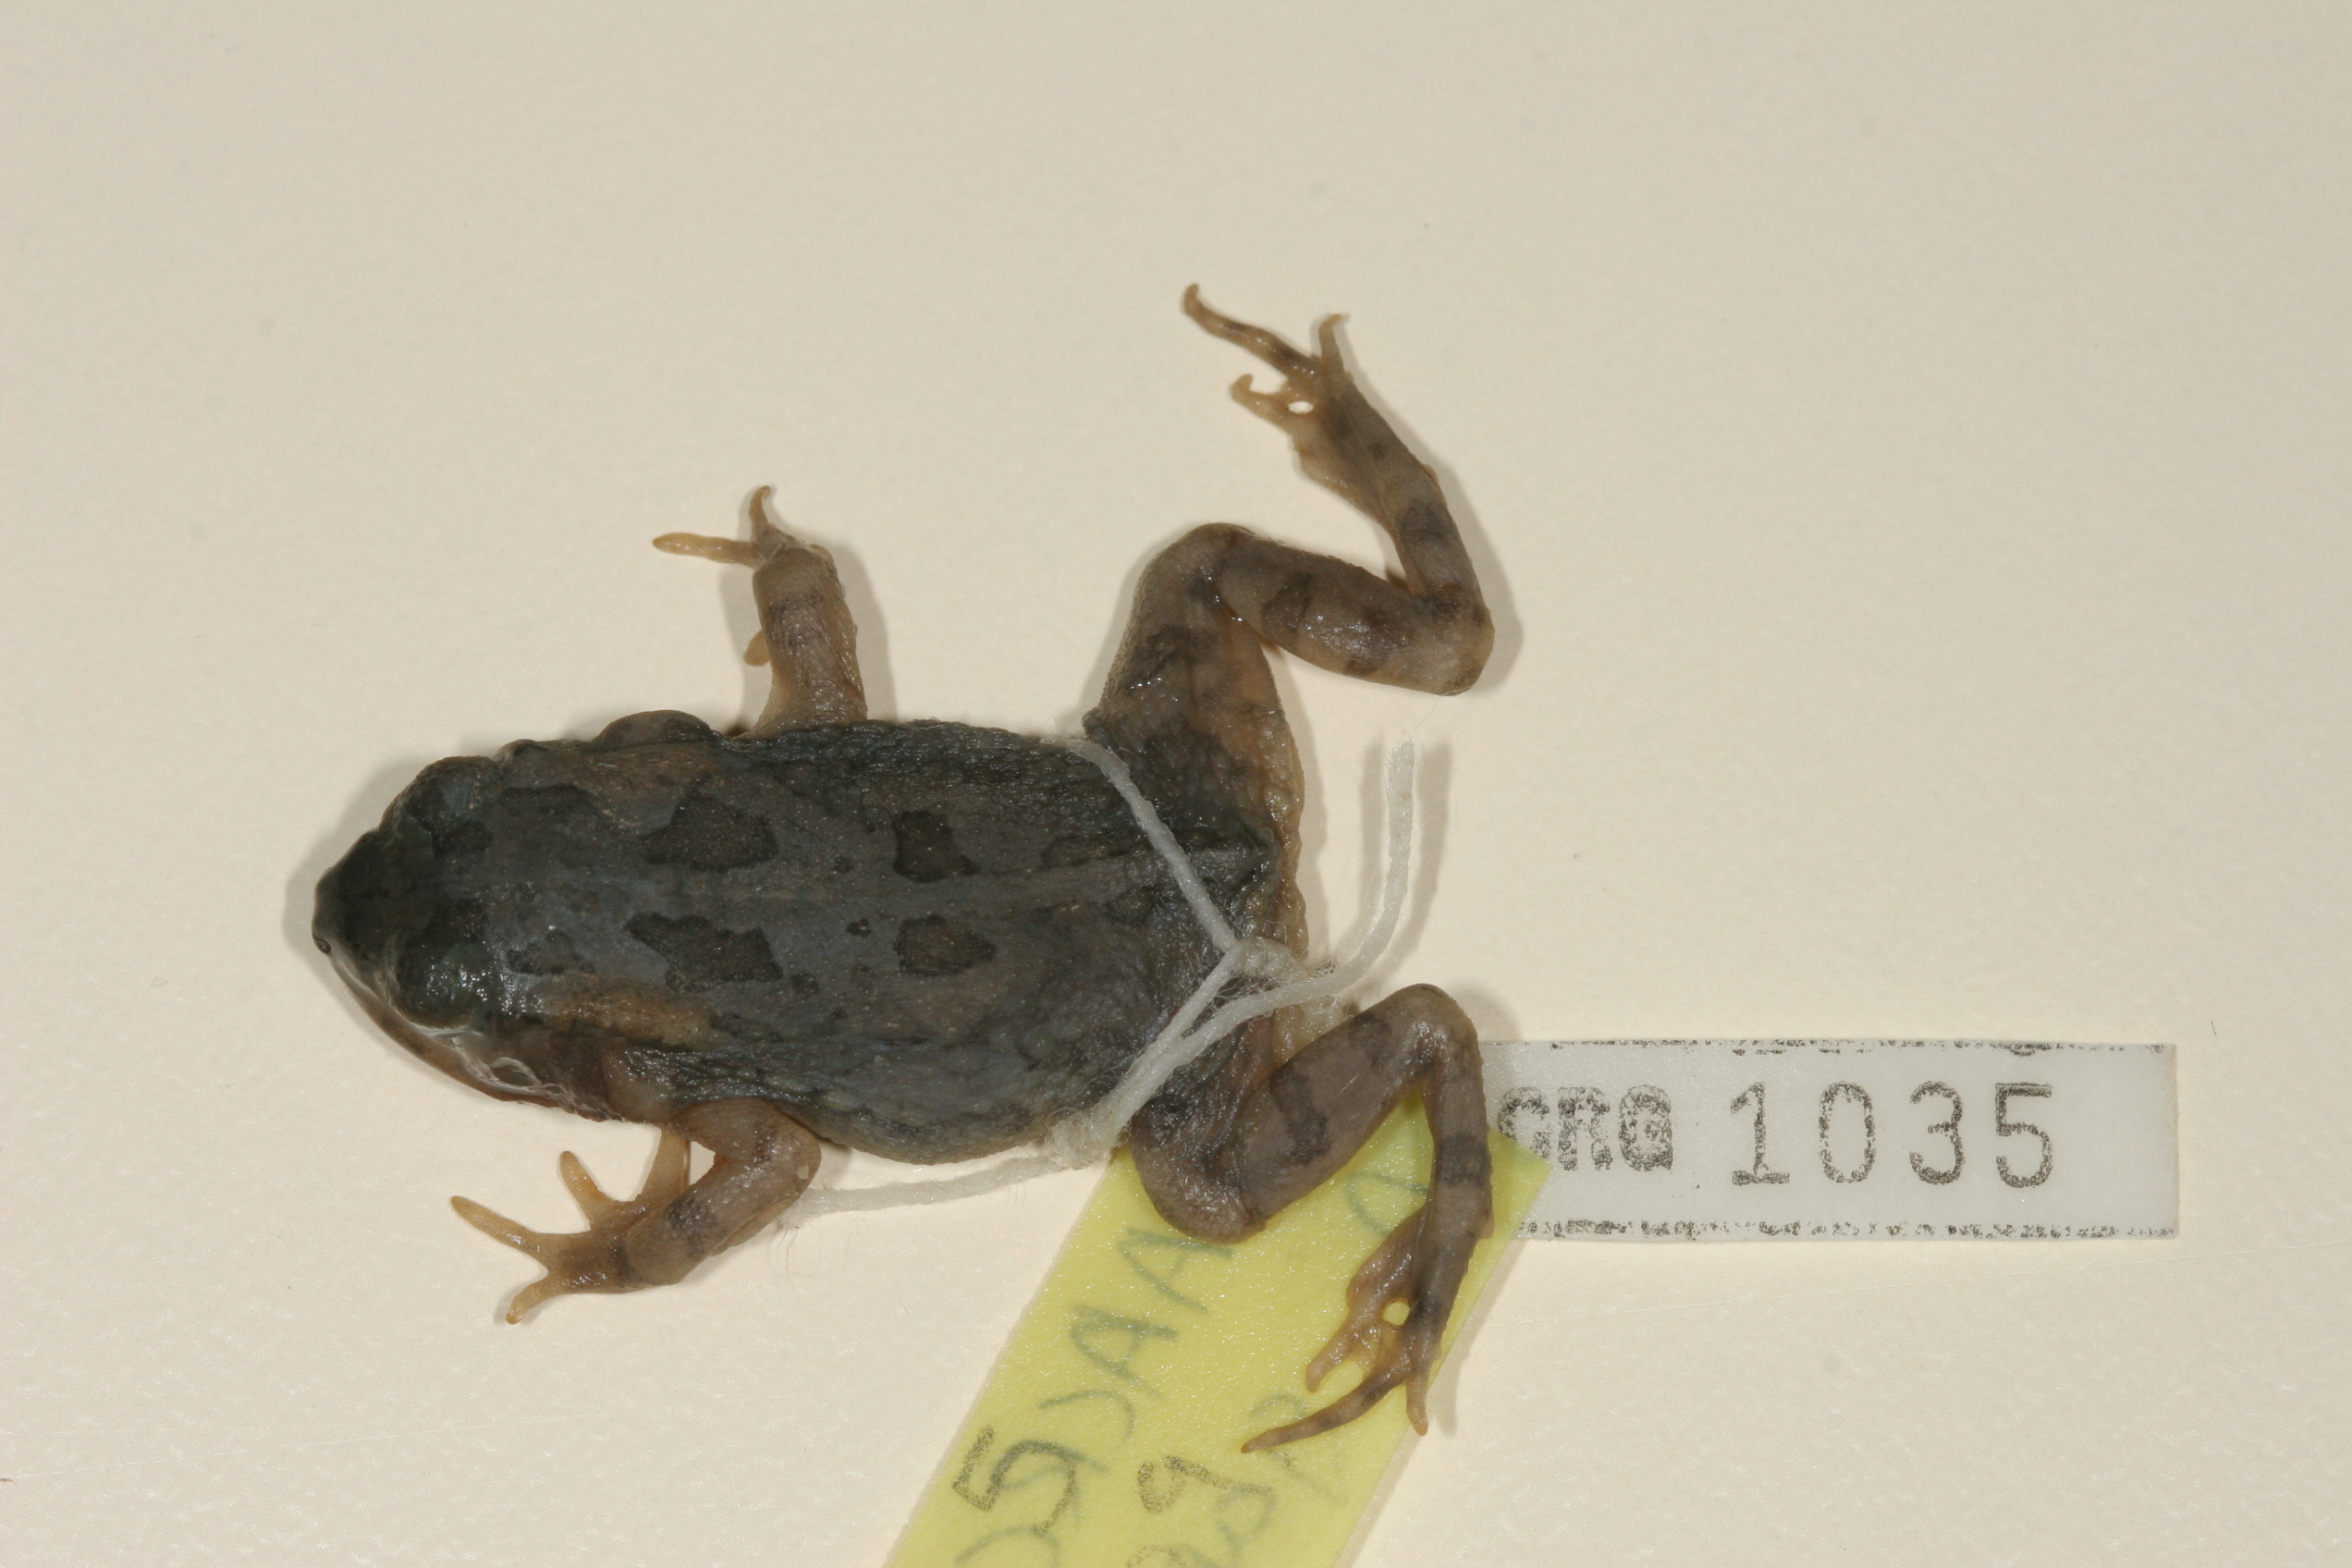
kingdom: Animalia
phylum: Chordata
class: Amphibia
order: Anura
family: Bufonidae
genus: Sclerophrys
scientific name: Sclerophrys poweri
